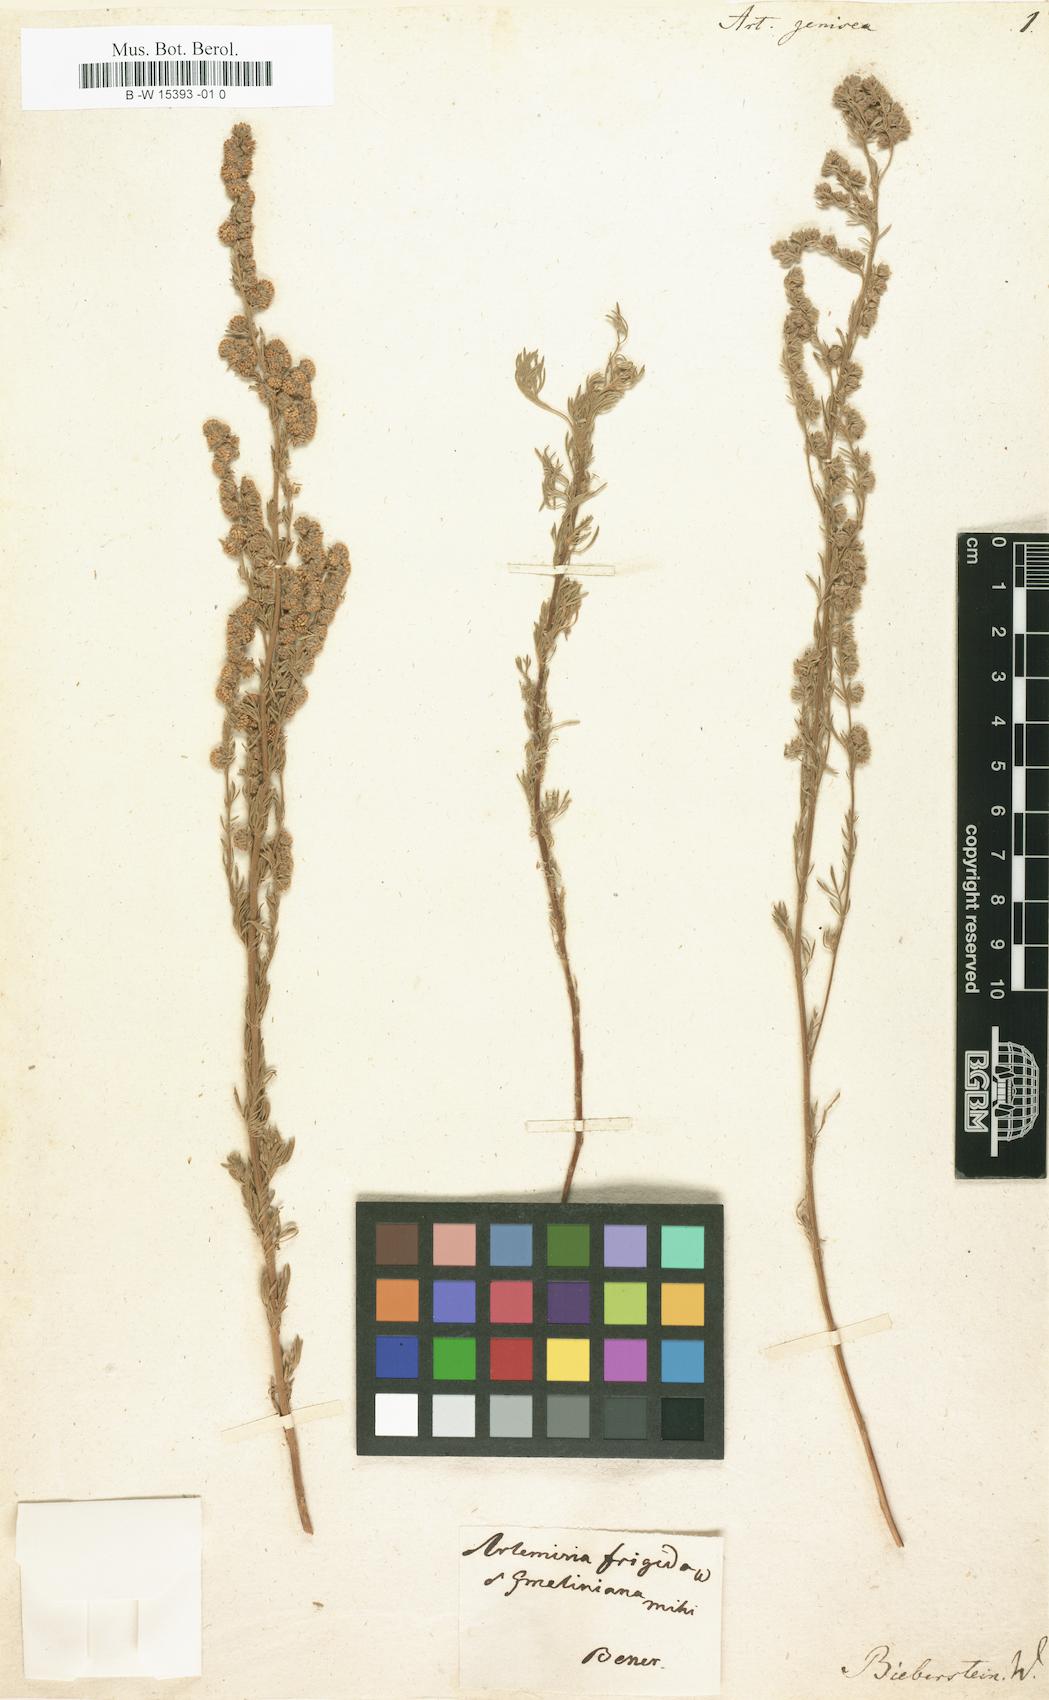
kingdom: Plantae
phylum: Tracheophyta
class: Magnoliopsida
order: Asterales
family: Asteraceae
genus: Artemisia
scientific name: Artemisia frigida
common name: Prairie sagewort
